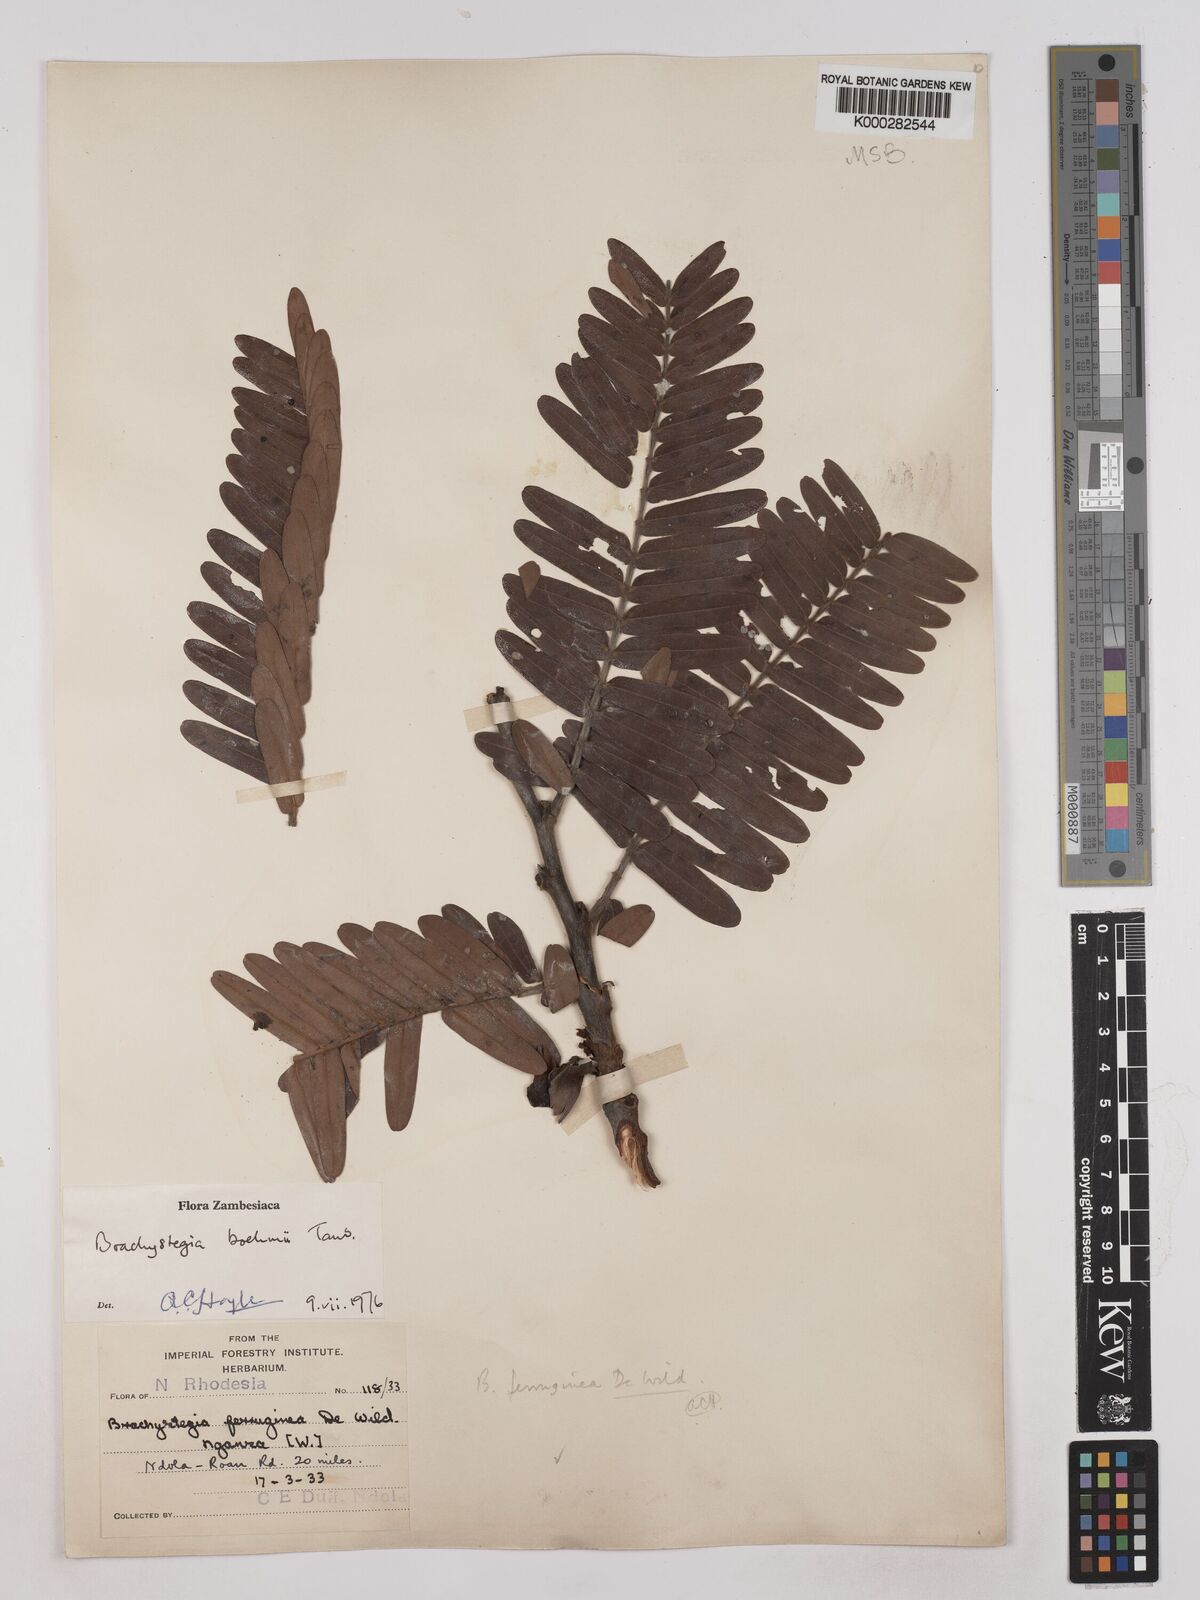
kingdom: Plantae
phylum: Tracheophyta
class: Magnoliopsida
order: Fabales
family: Fabaceae
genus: Brachystegia
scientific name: Brachystegia boehmii
